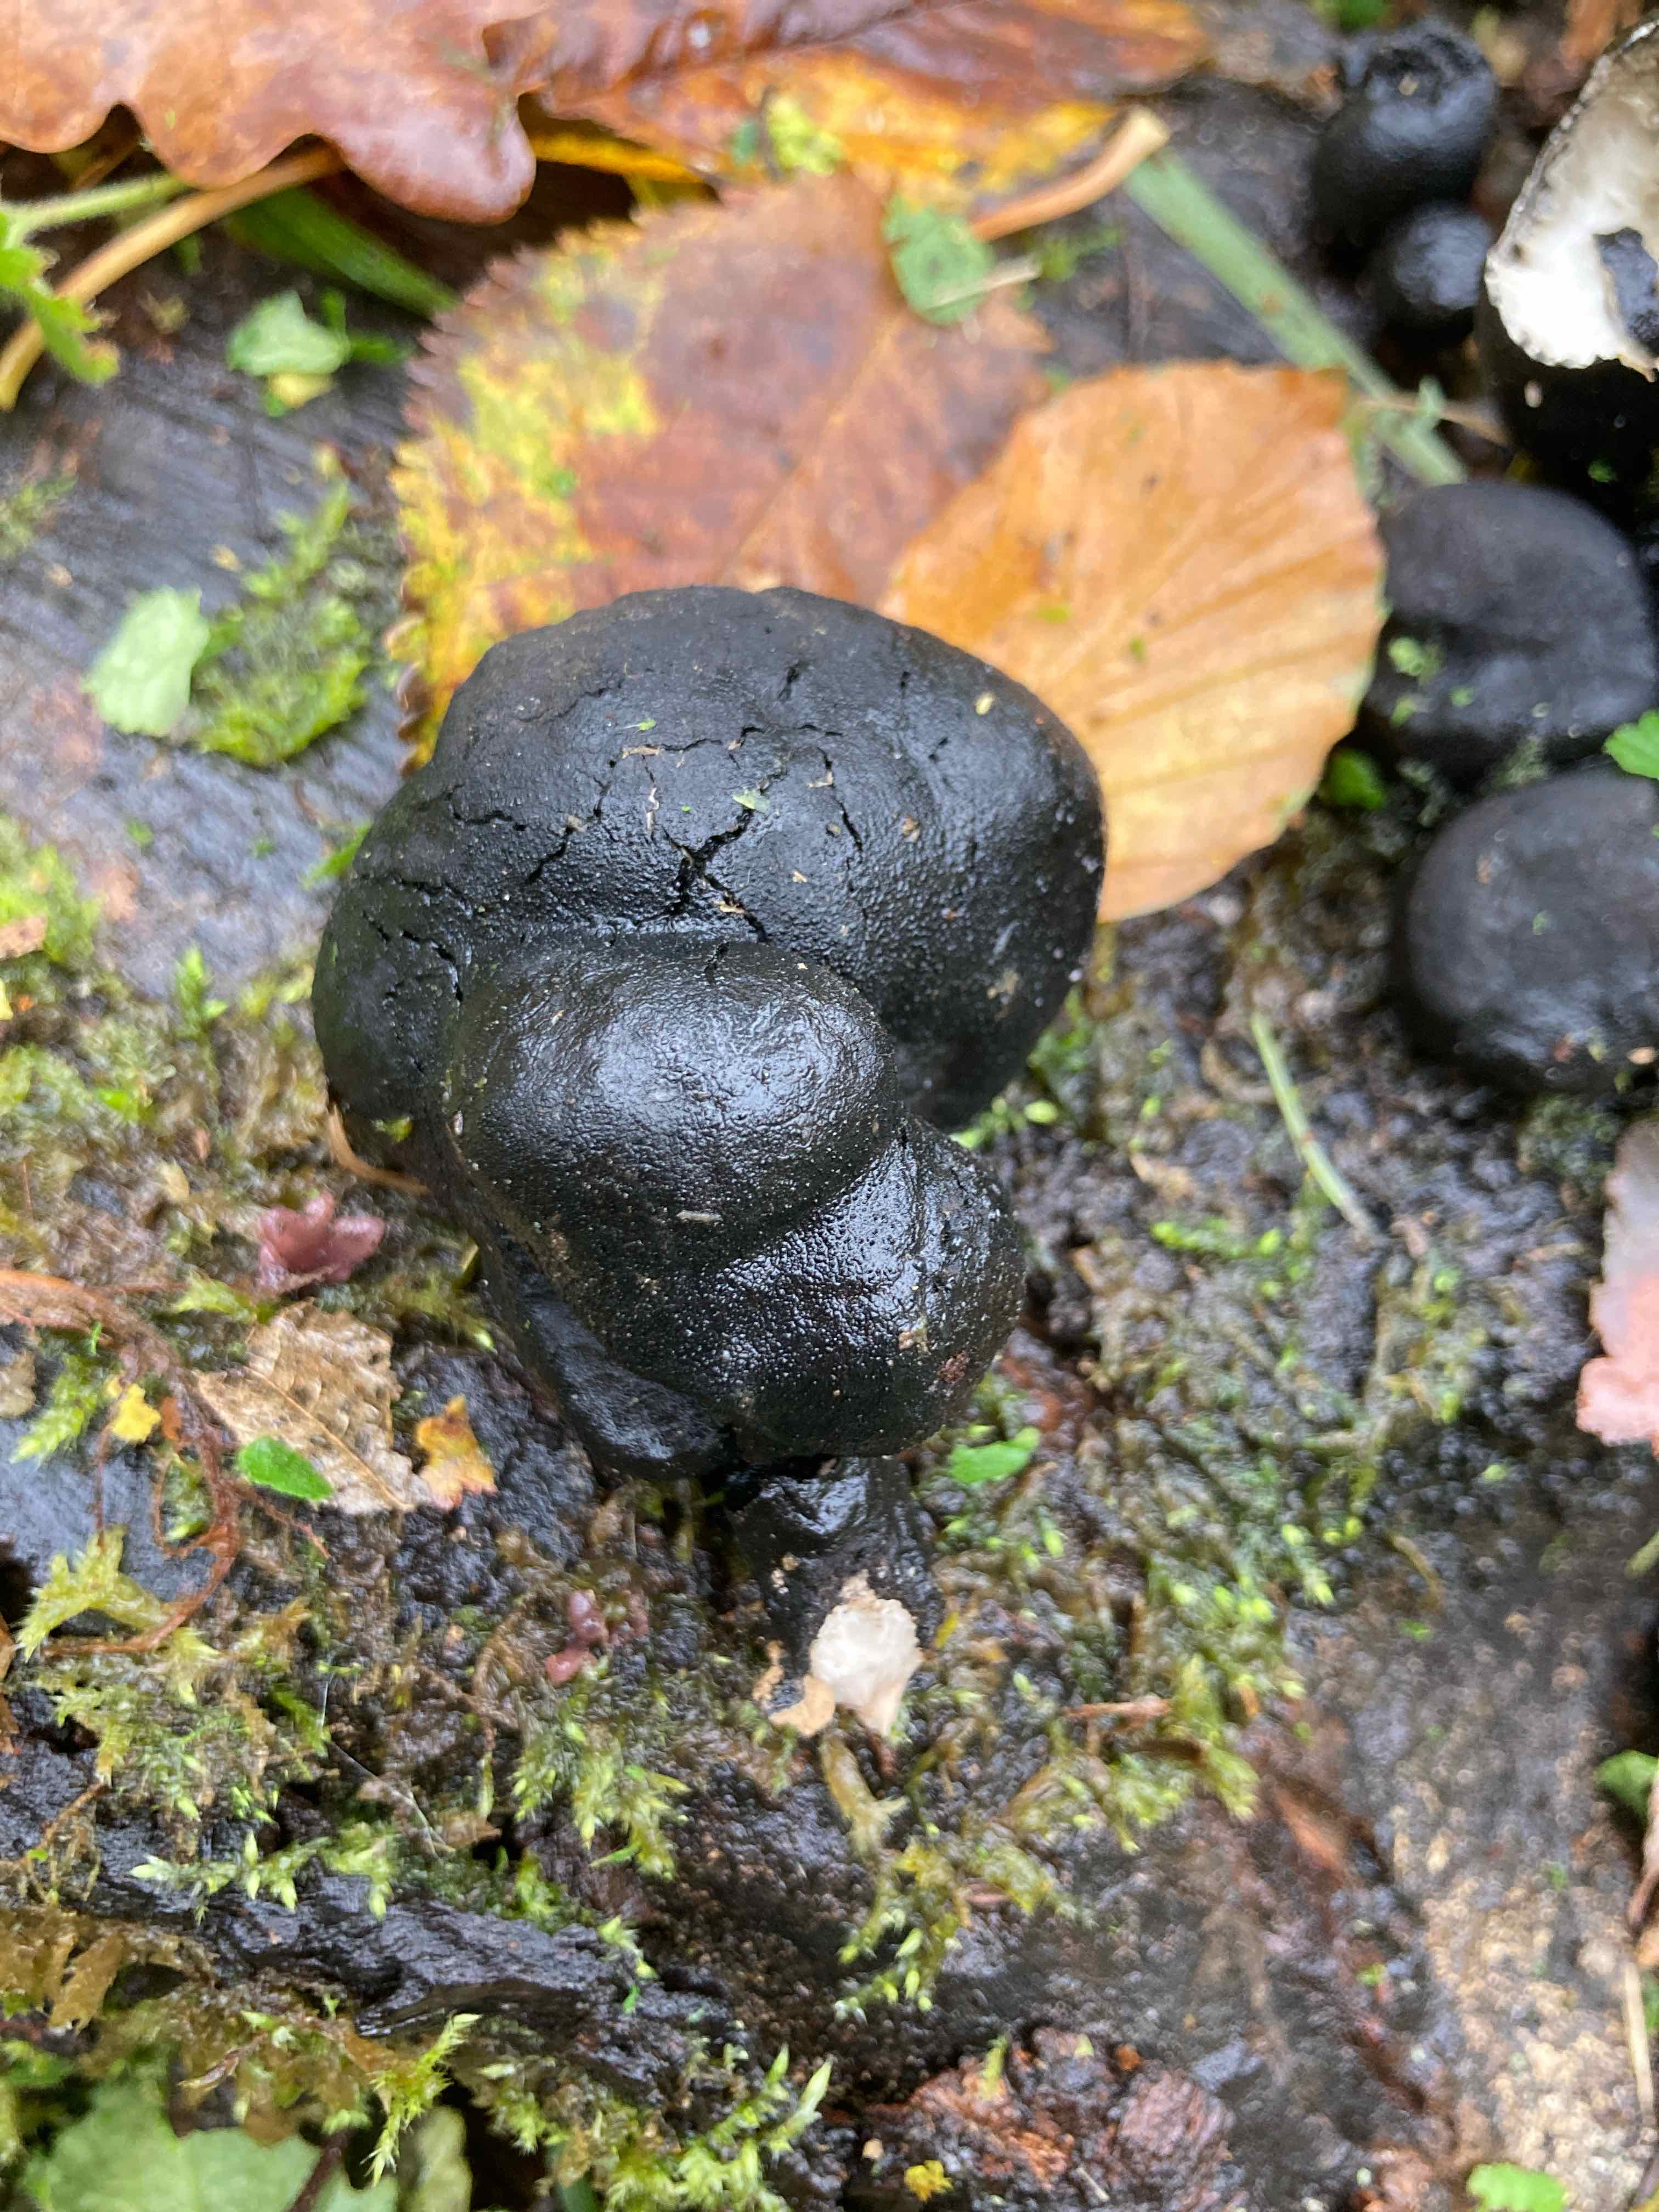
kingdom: Fungi
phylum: Ascomycota
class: Sordariomycetes
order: Xylariales
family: Xylariaceae
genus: Xylaria
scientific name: Xylaria polymorpha
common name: kølle-stødsvamp
